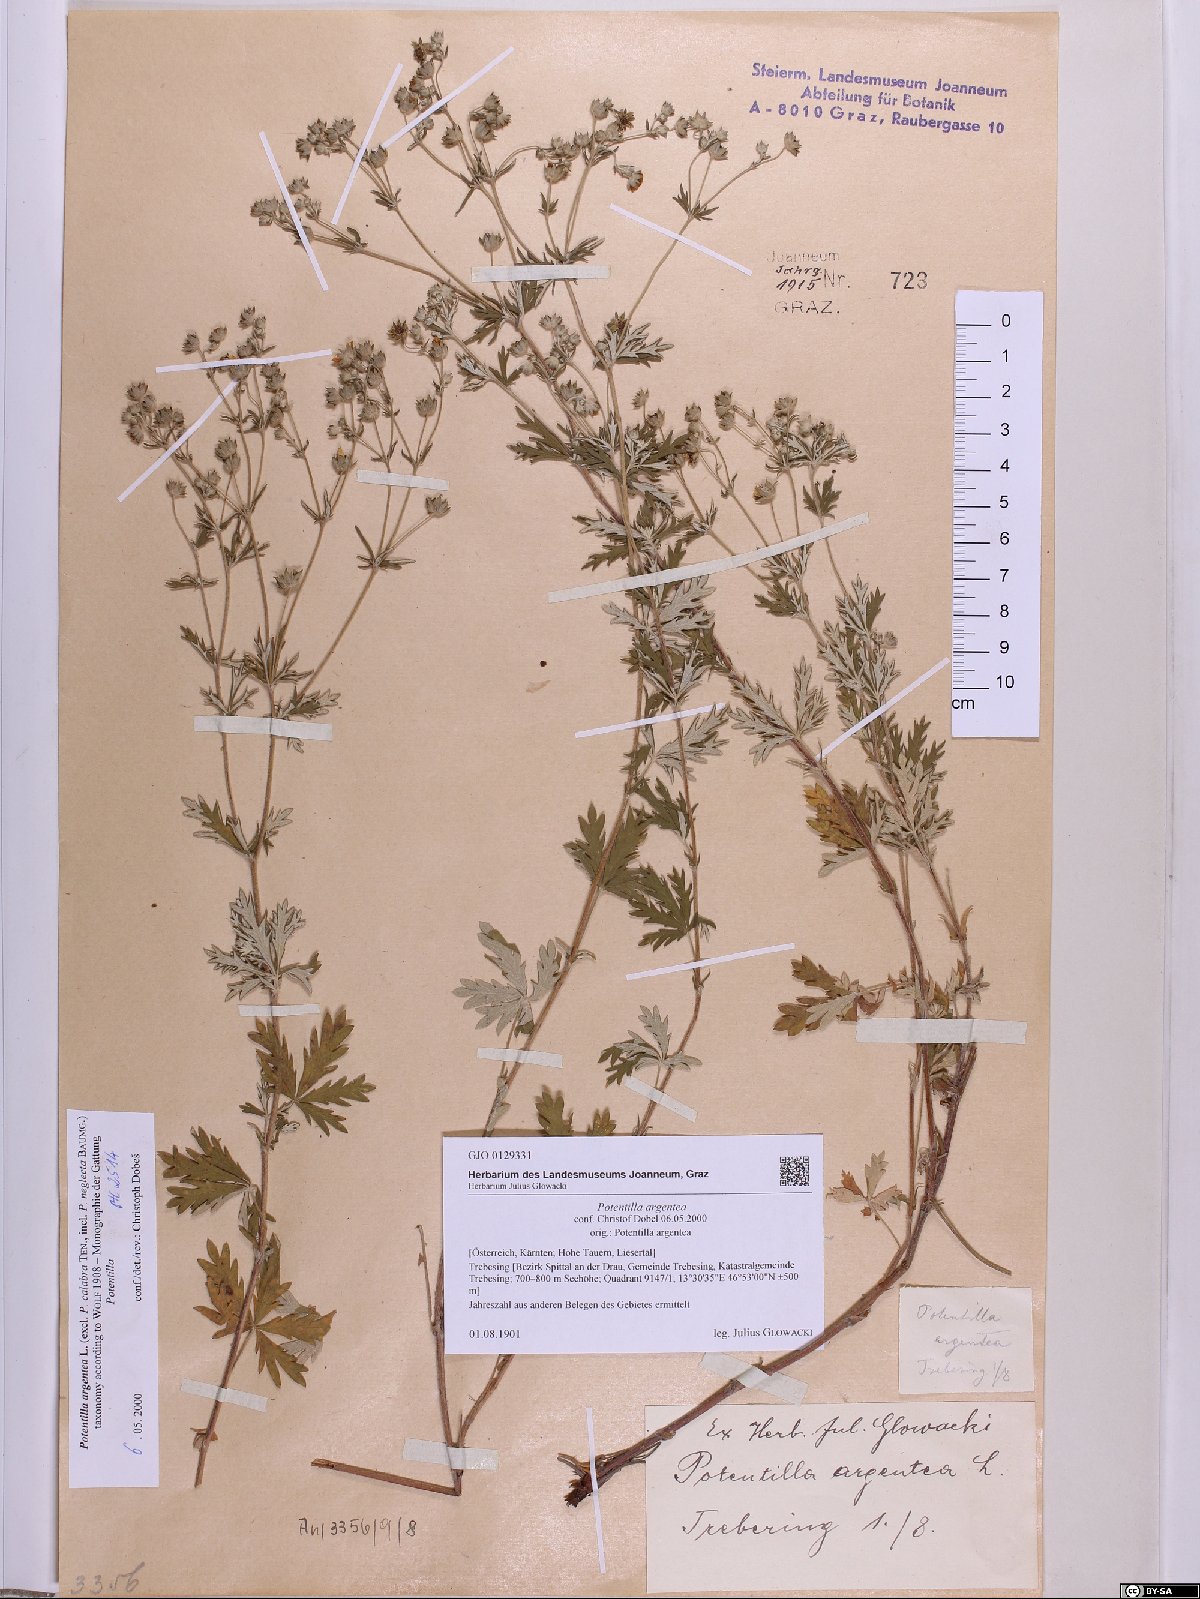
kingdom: Plantae
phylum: Tracheophyta
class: Magnoliopsida
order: Rosales
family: Rosaceae
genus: Potentilla
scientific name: Potentilla argentea
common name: Hoary cinquefoil
